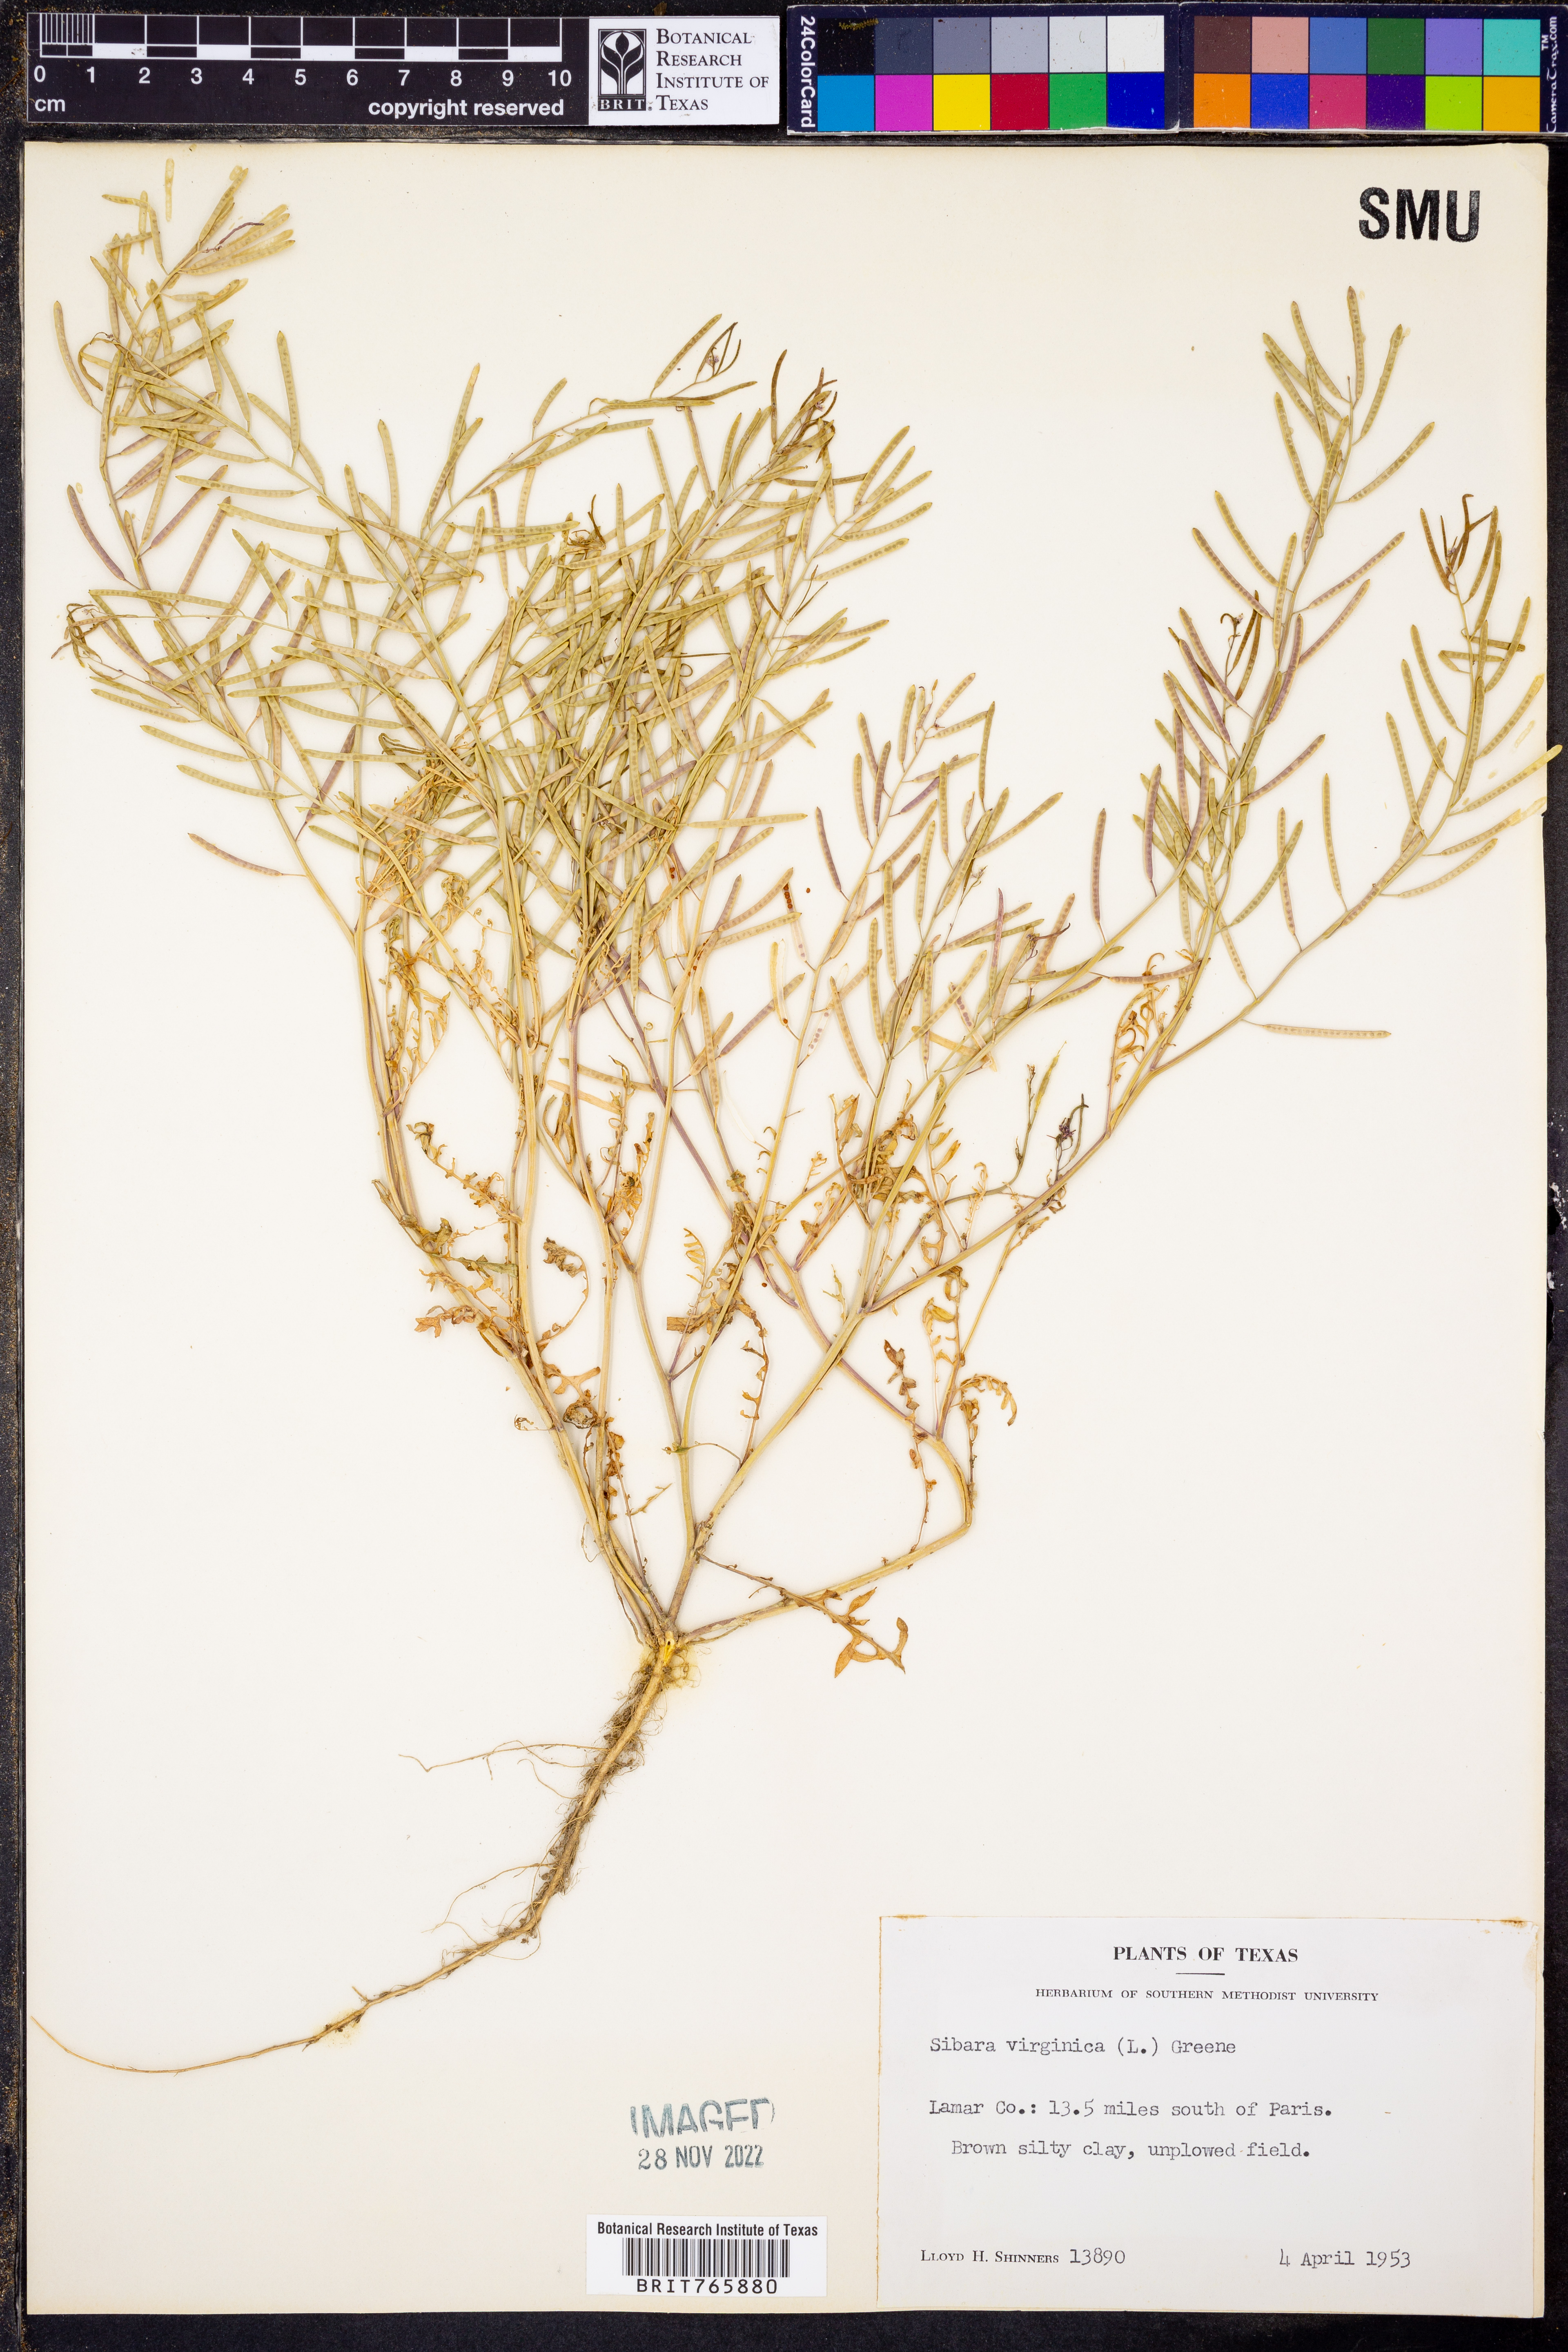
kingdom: Plantae
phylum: Tracheophyta
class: Magnoliopsida
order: Brassicales
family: Brassicaceae
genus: Planodes
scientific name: Planodes virginicum
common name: Virginia cress
